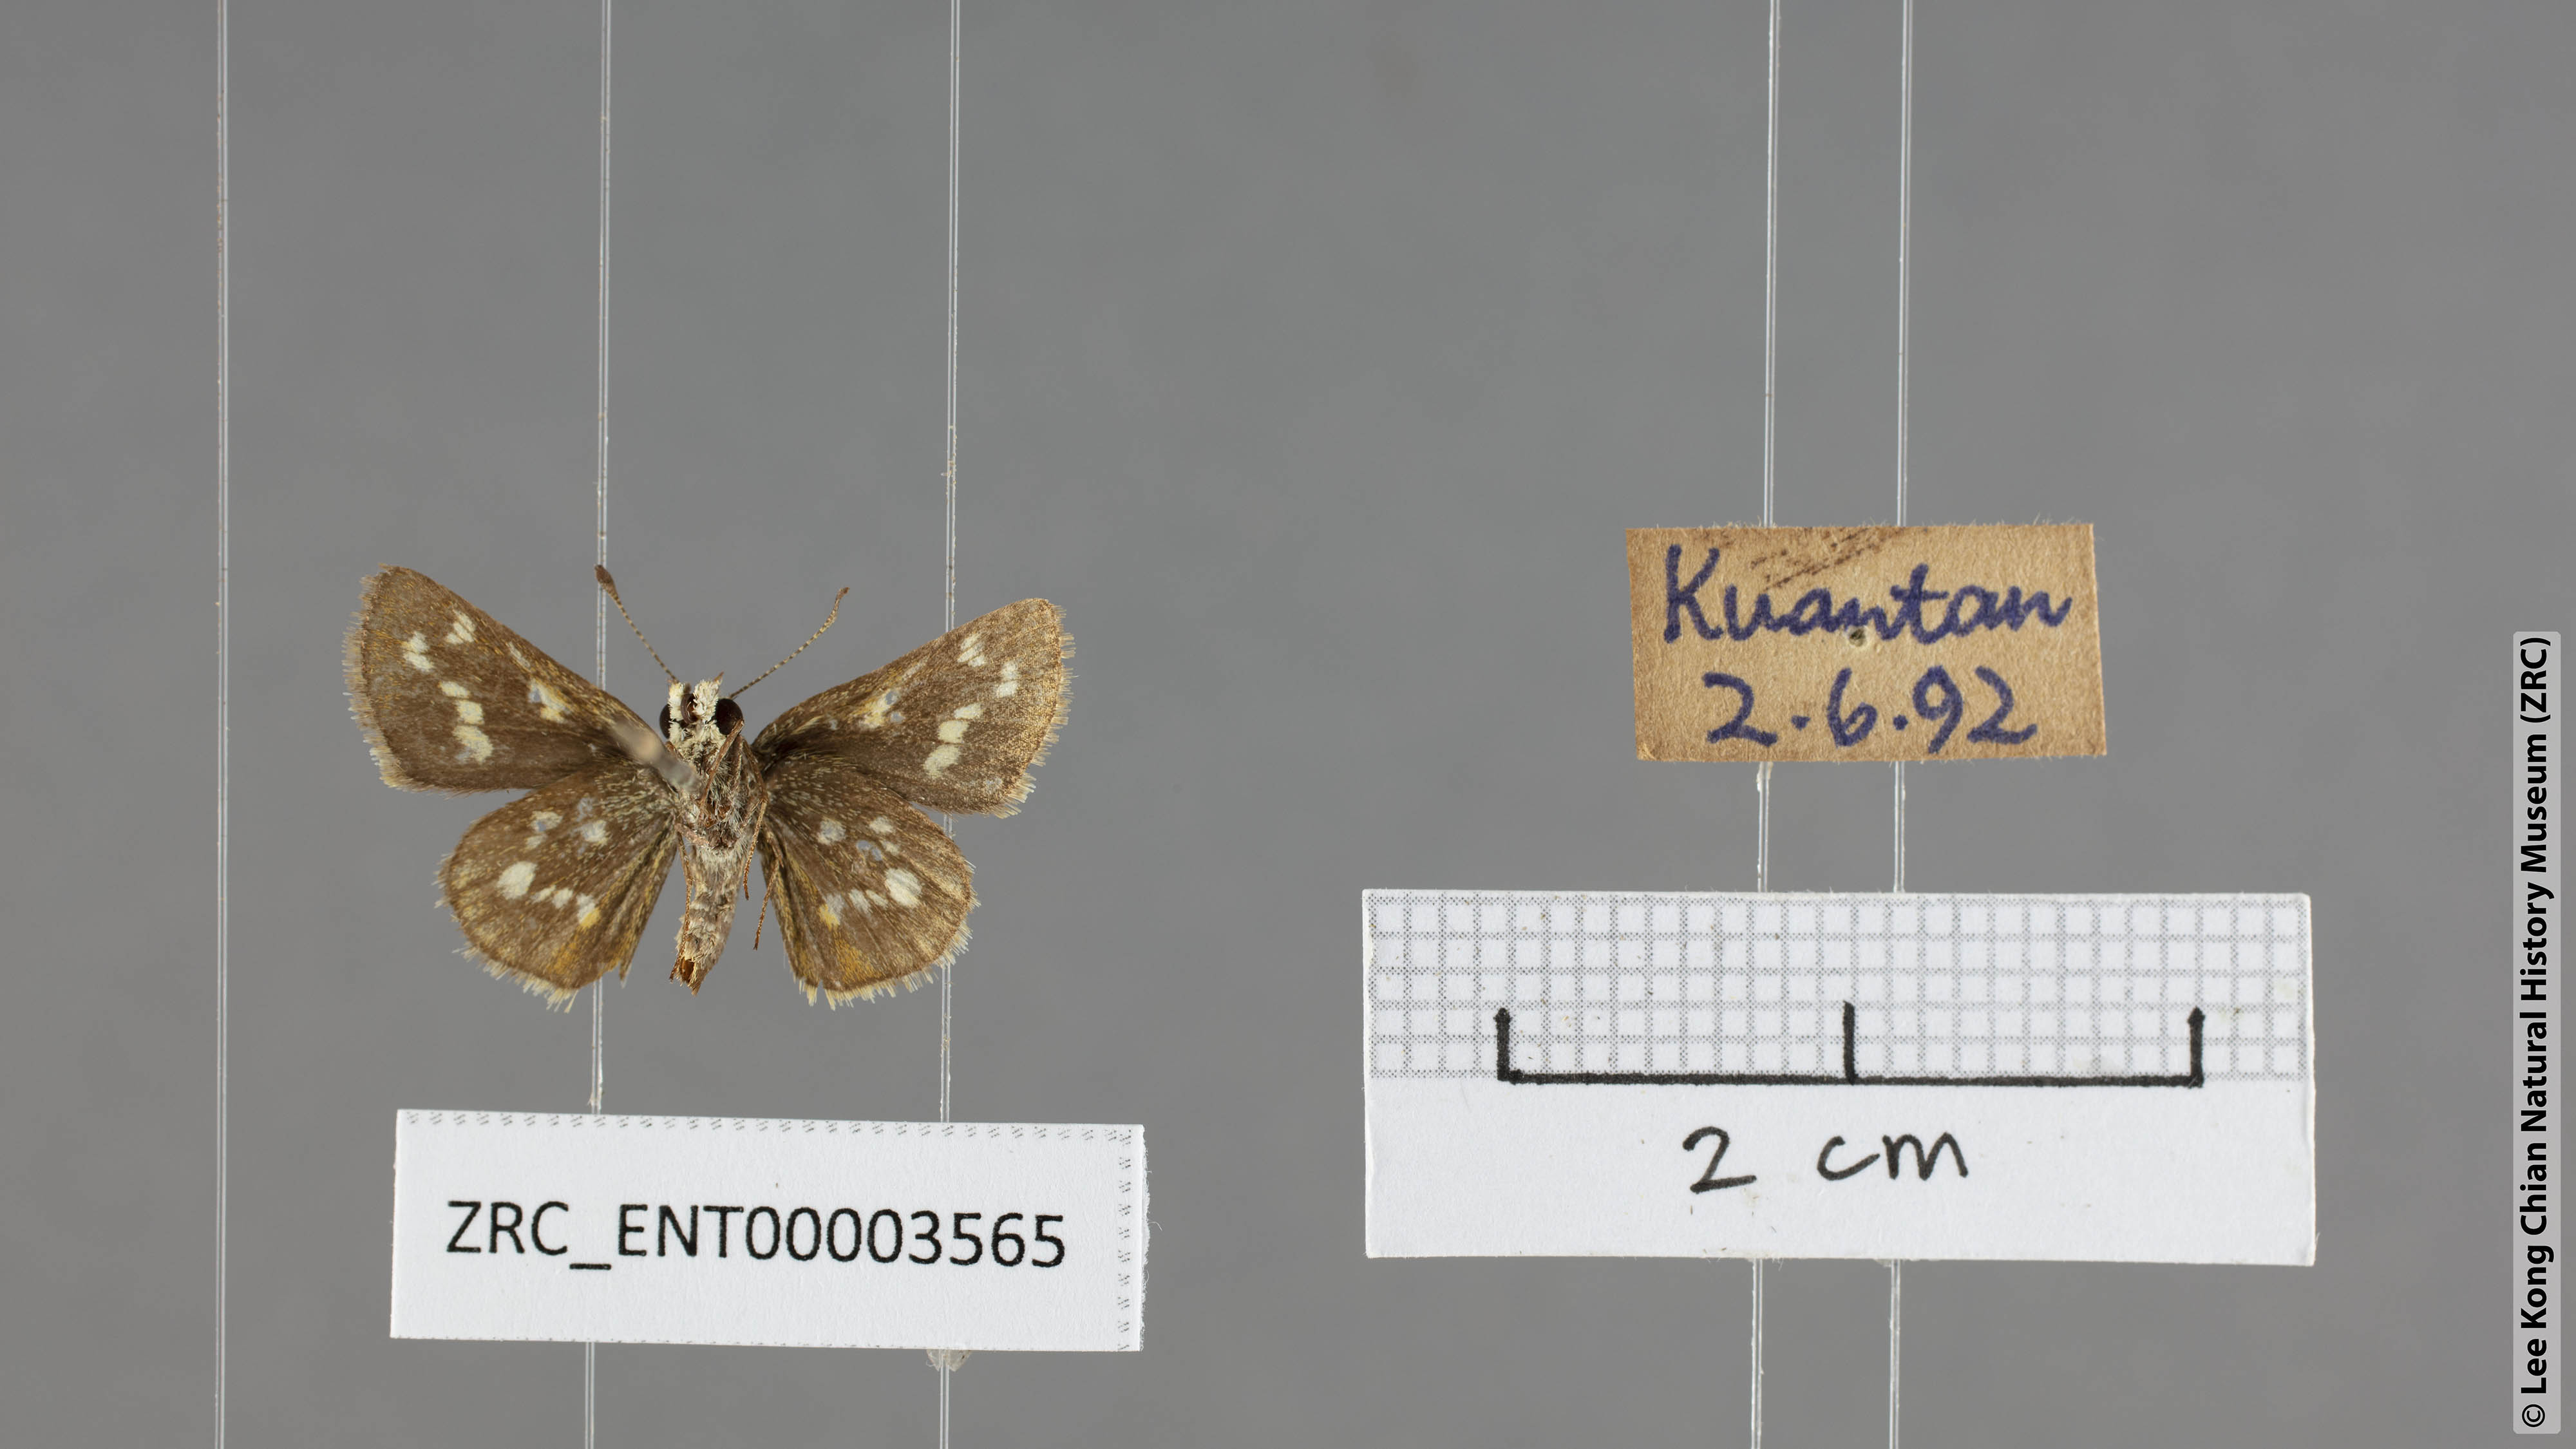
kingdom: Animalia
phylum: Arthropoda
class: Insecta
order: Lepidoptera
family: Hesperiidae
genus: Taractrocera
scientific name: Taractrocera ardonia
